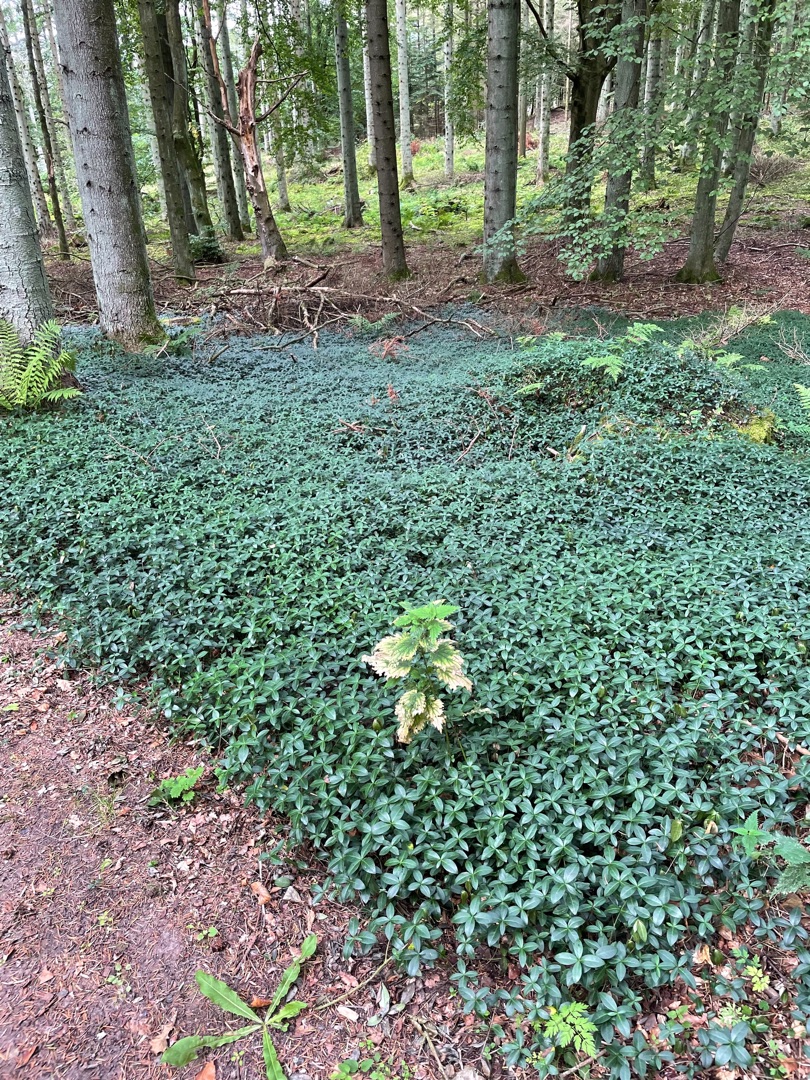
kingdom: Plantae
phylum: Tracheophyta
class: Magnoliopsida
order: Gentianales
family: Apocynaceae
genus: Vinca
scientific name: Vinca minor
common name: Liden singrøn
